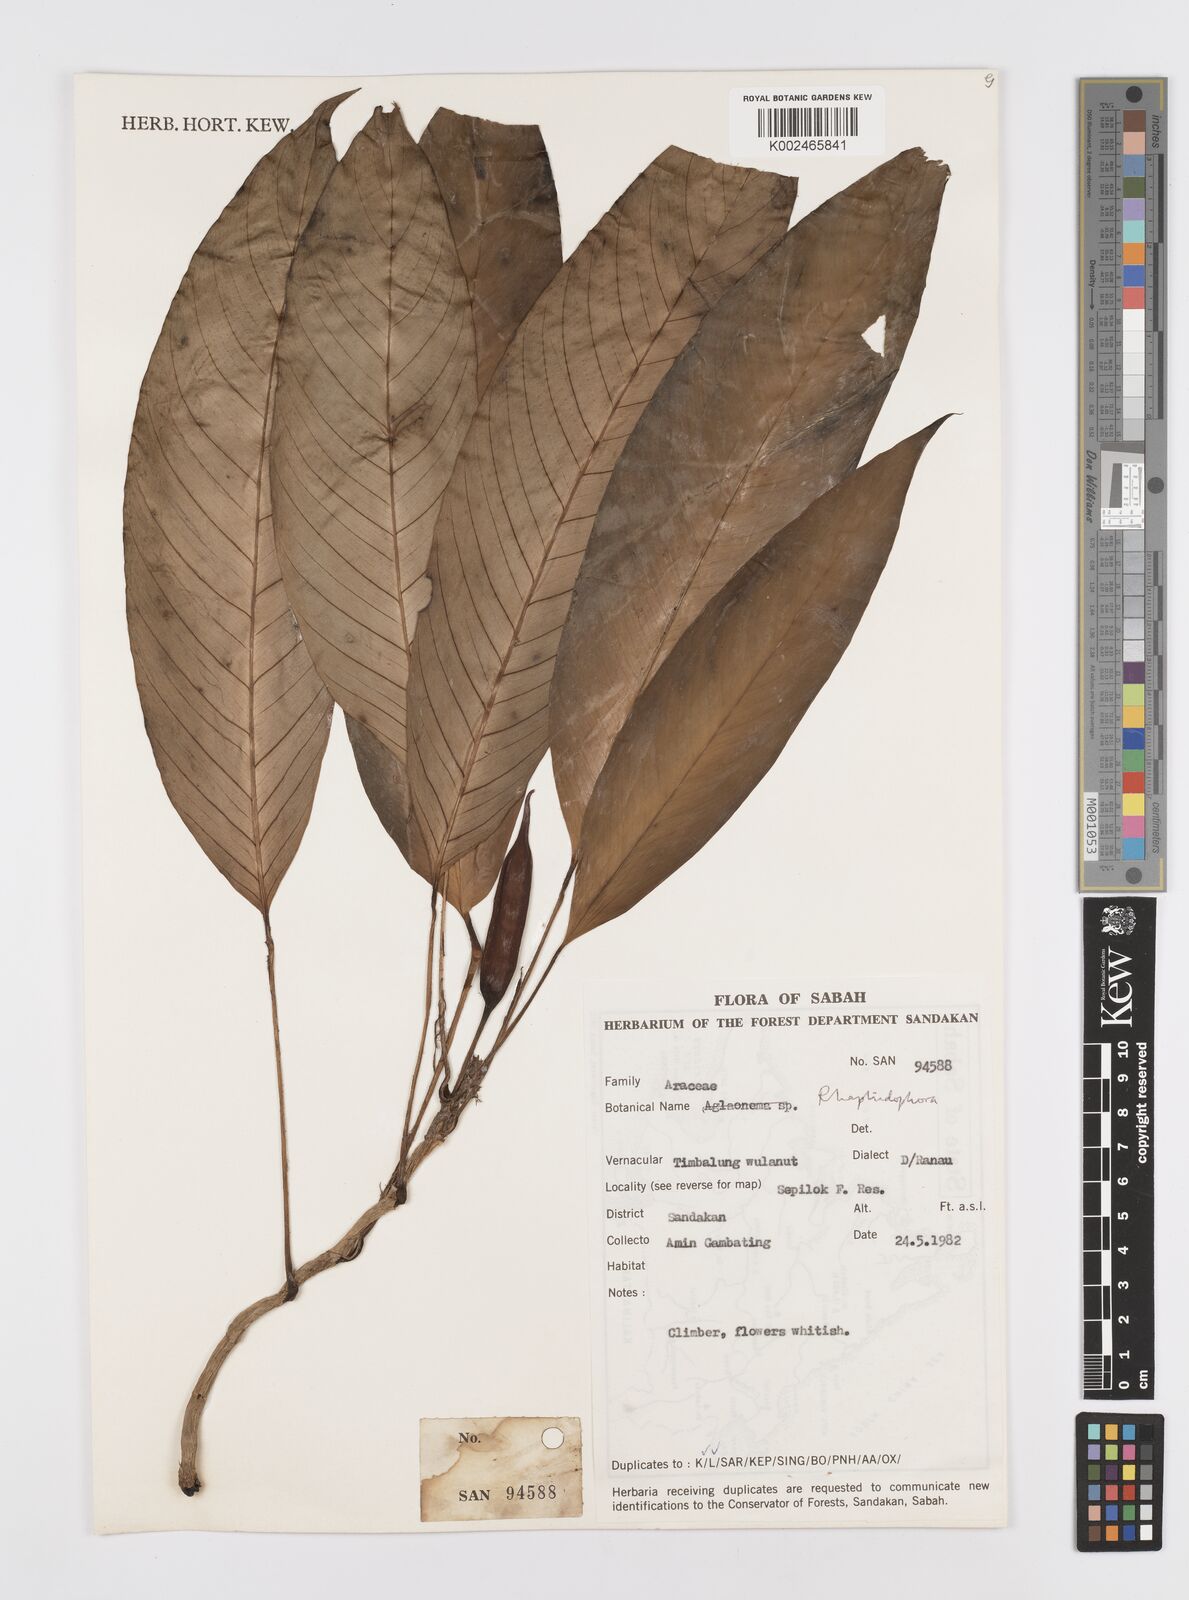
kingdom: Plantae
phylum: Tracheophyta
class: Liliopsida
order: Alismatales
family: Araceae
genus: Rhaphidophora
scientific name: Rhaphidophora lobbii
